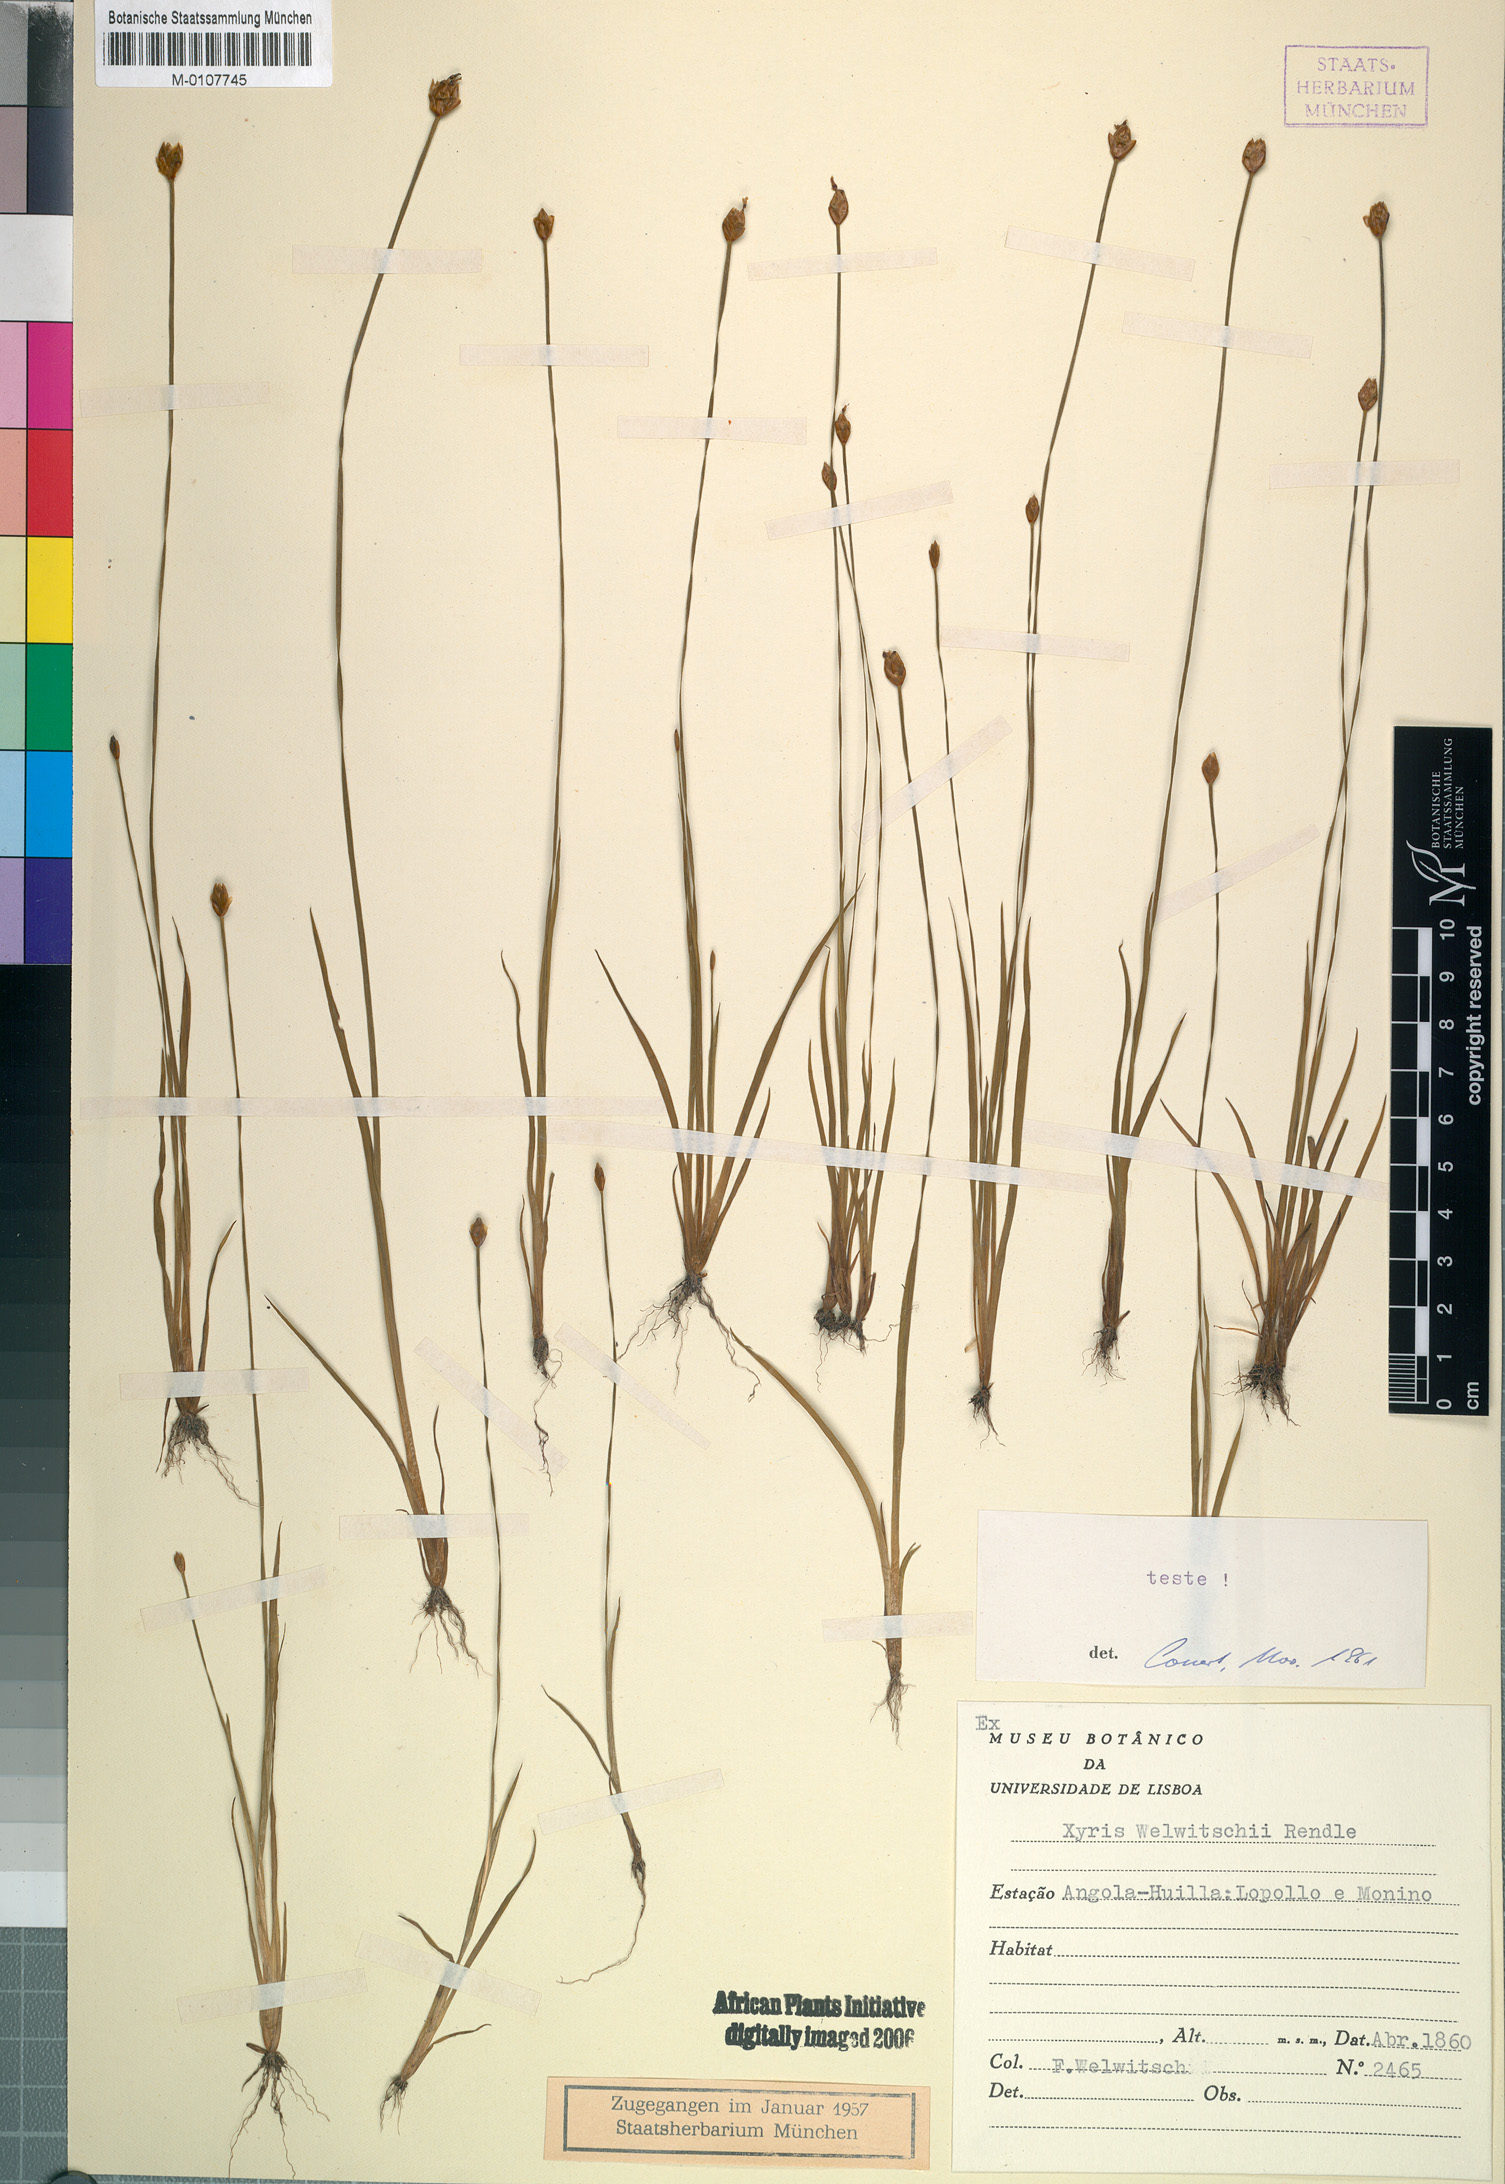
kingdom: Plantae
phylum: Tracheophyta
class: Liliopsida
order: Poales
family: Xyridaceae
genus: Xyris
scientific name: Xyris welwitschii
